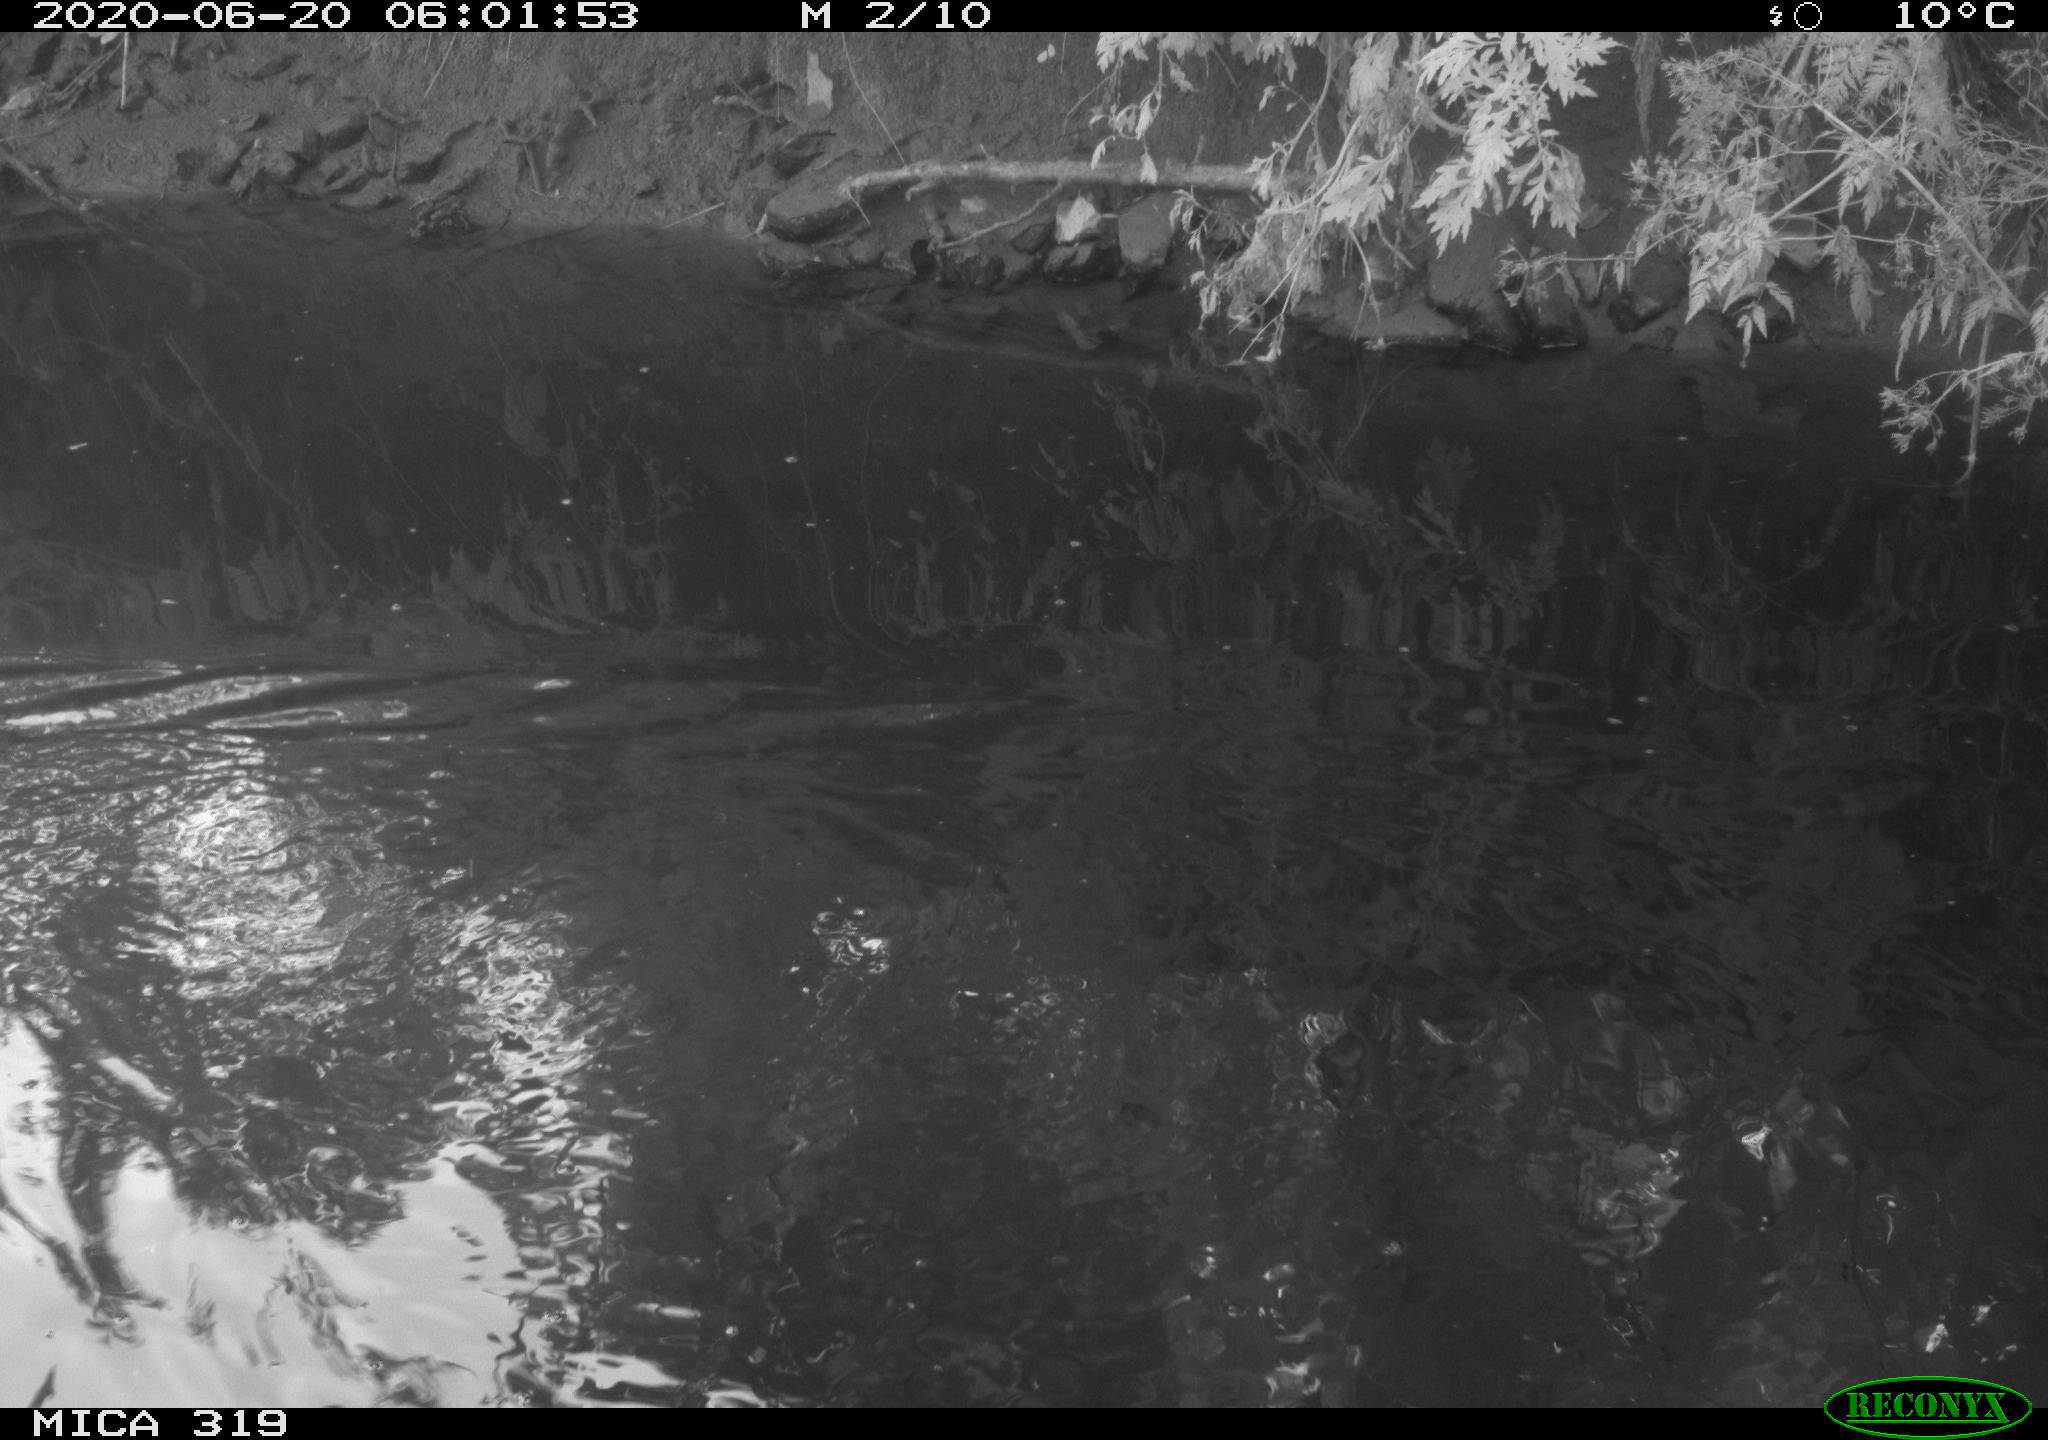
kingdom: Animalia
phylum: Chordata
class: Aves
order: Anseriformes
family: Anatidae
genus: Anas
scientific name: Anas platyrhynchos
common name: Mallard
